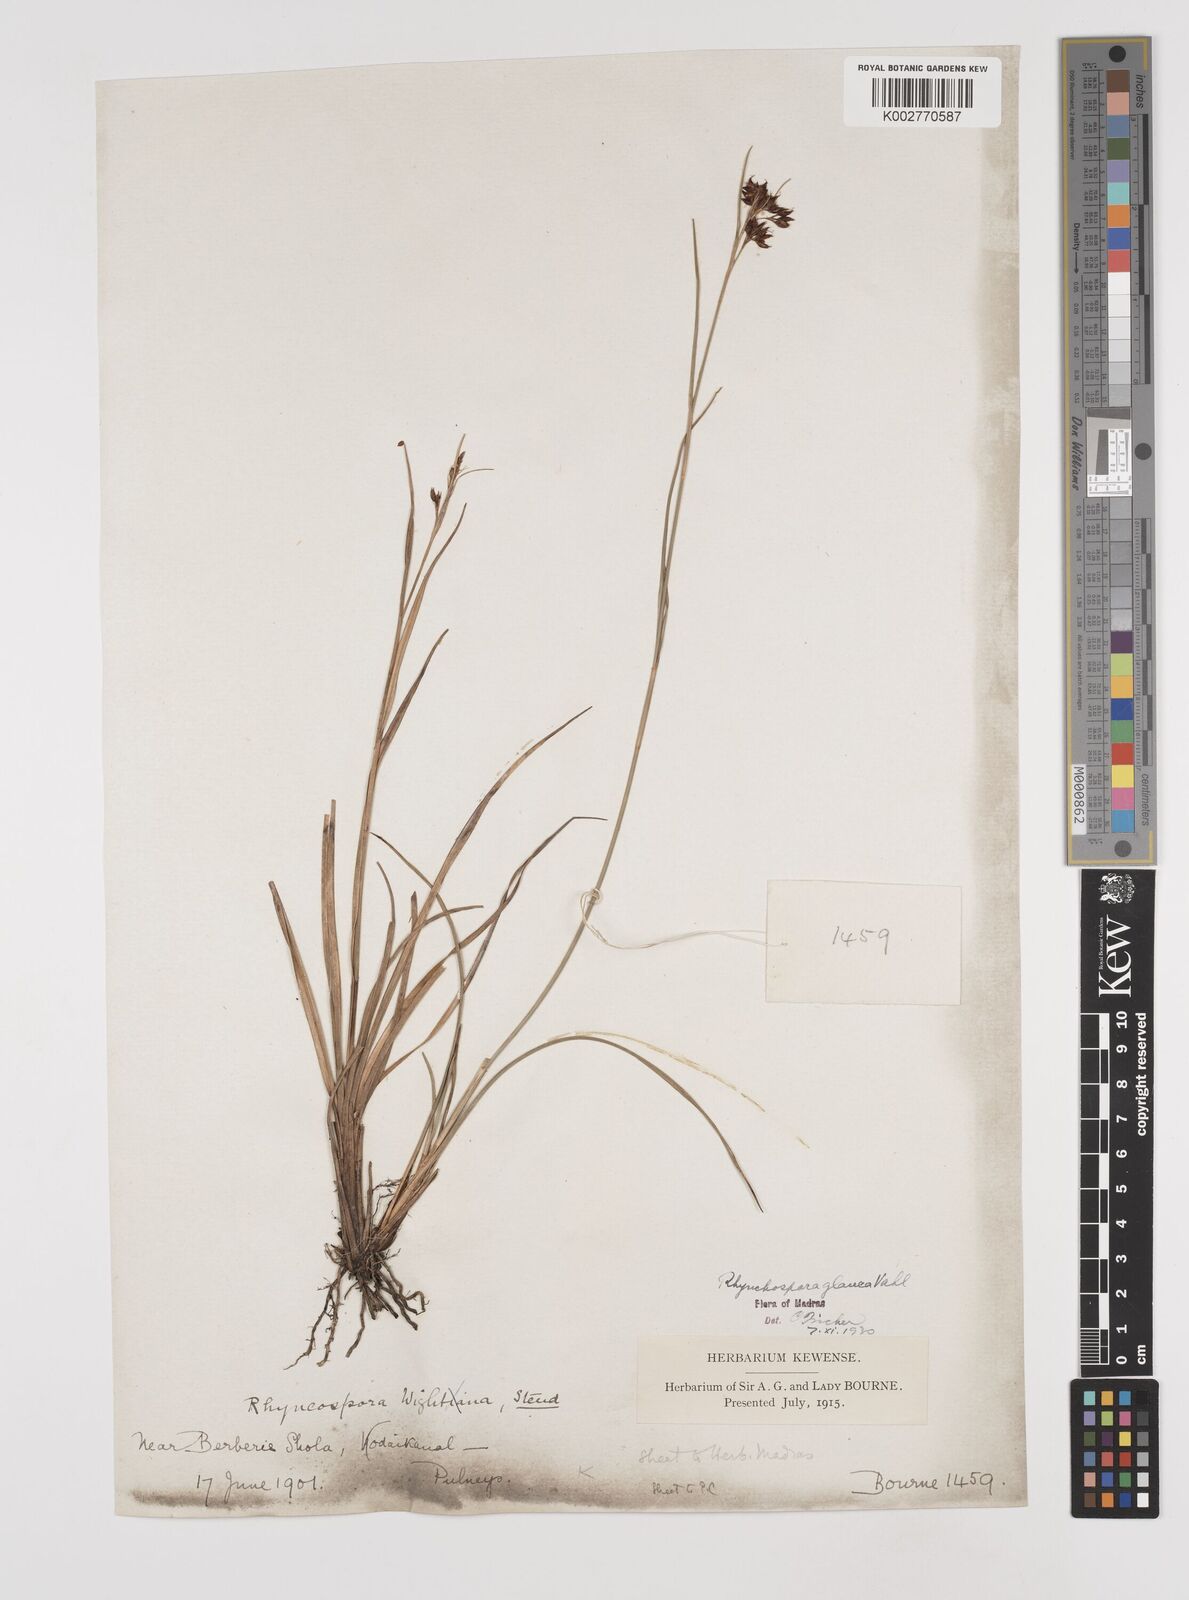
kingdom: Plantae
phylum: Tracheophyta
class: Liliopsida
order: Poales
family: Cyperaceae
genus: Rhynchospora
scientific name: Rhynchospora rugosa
